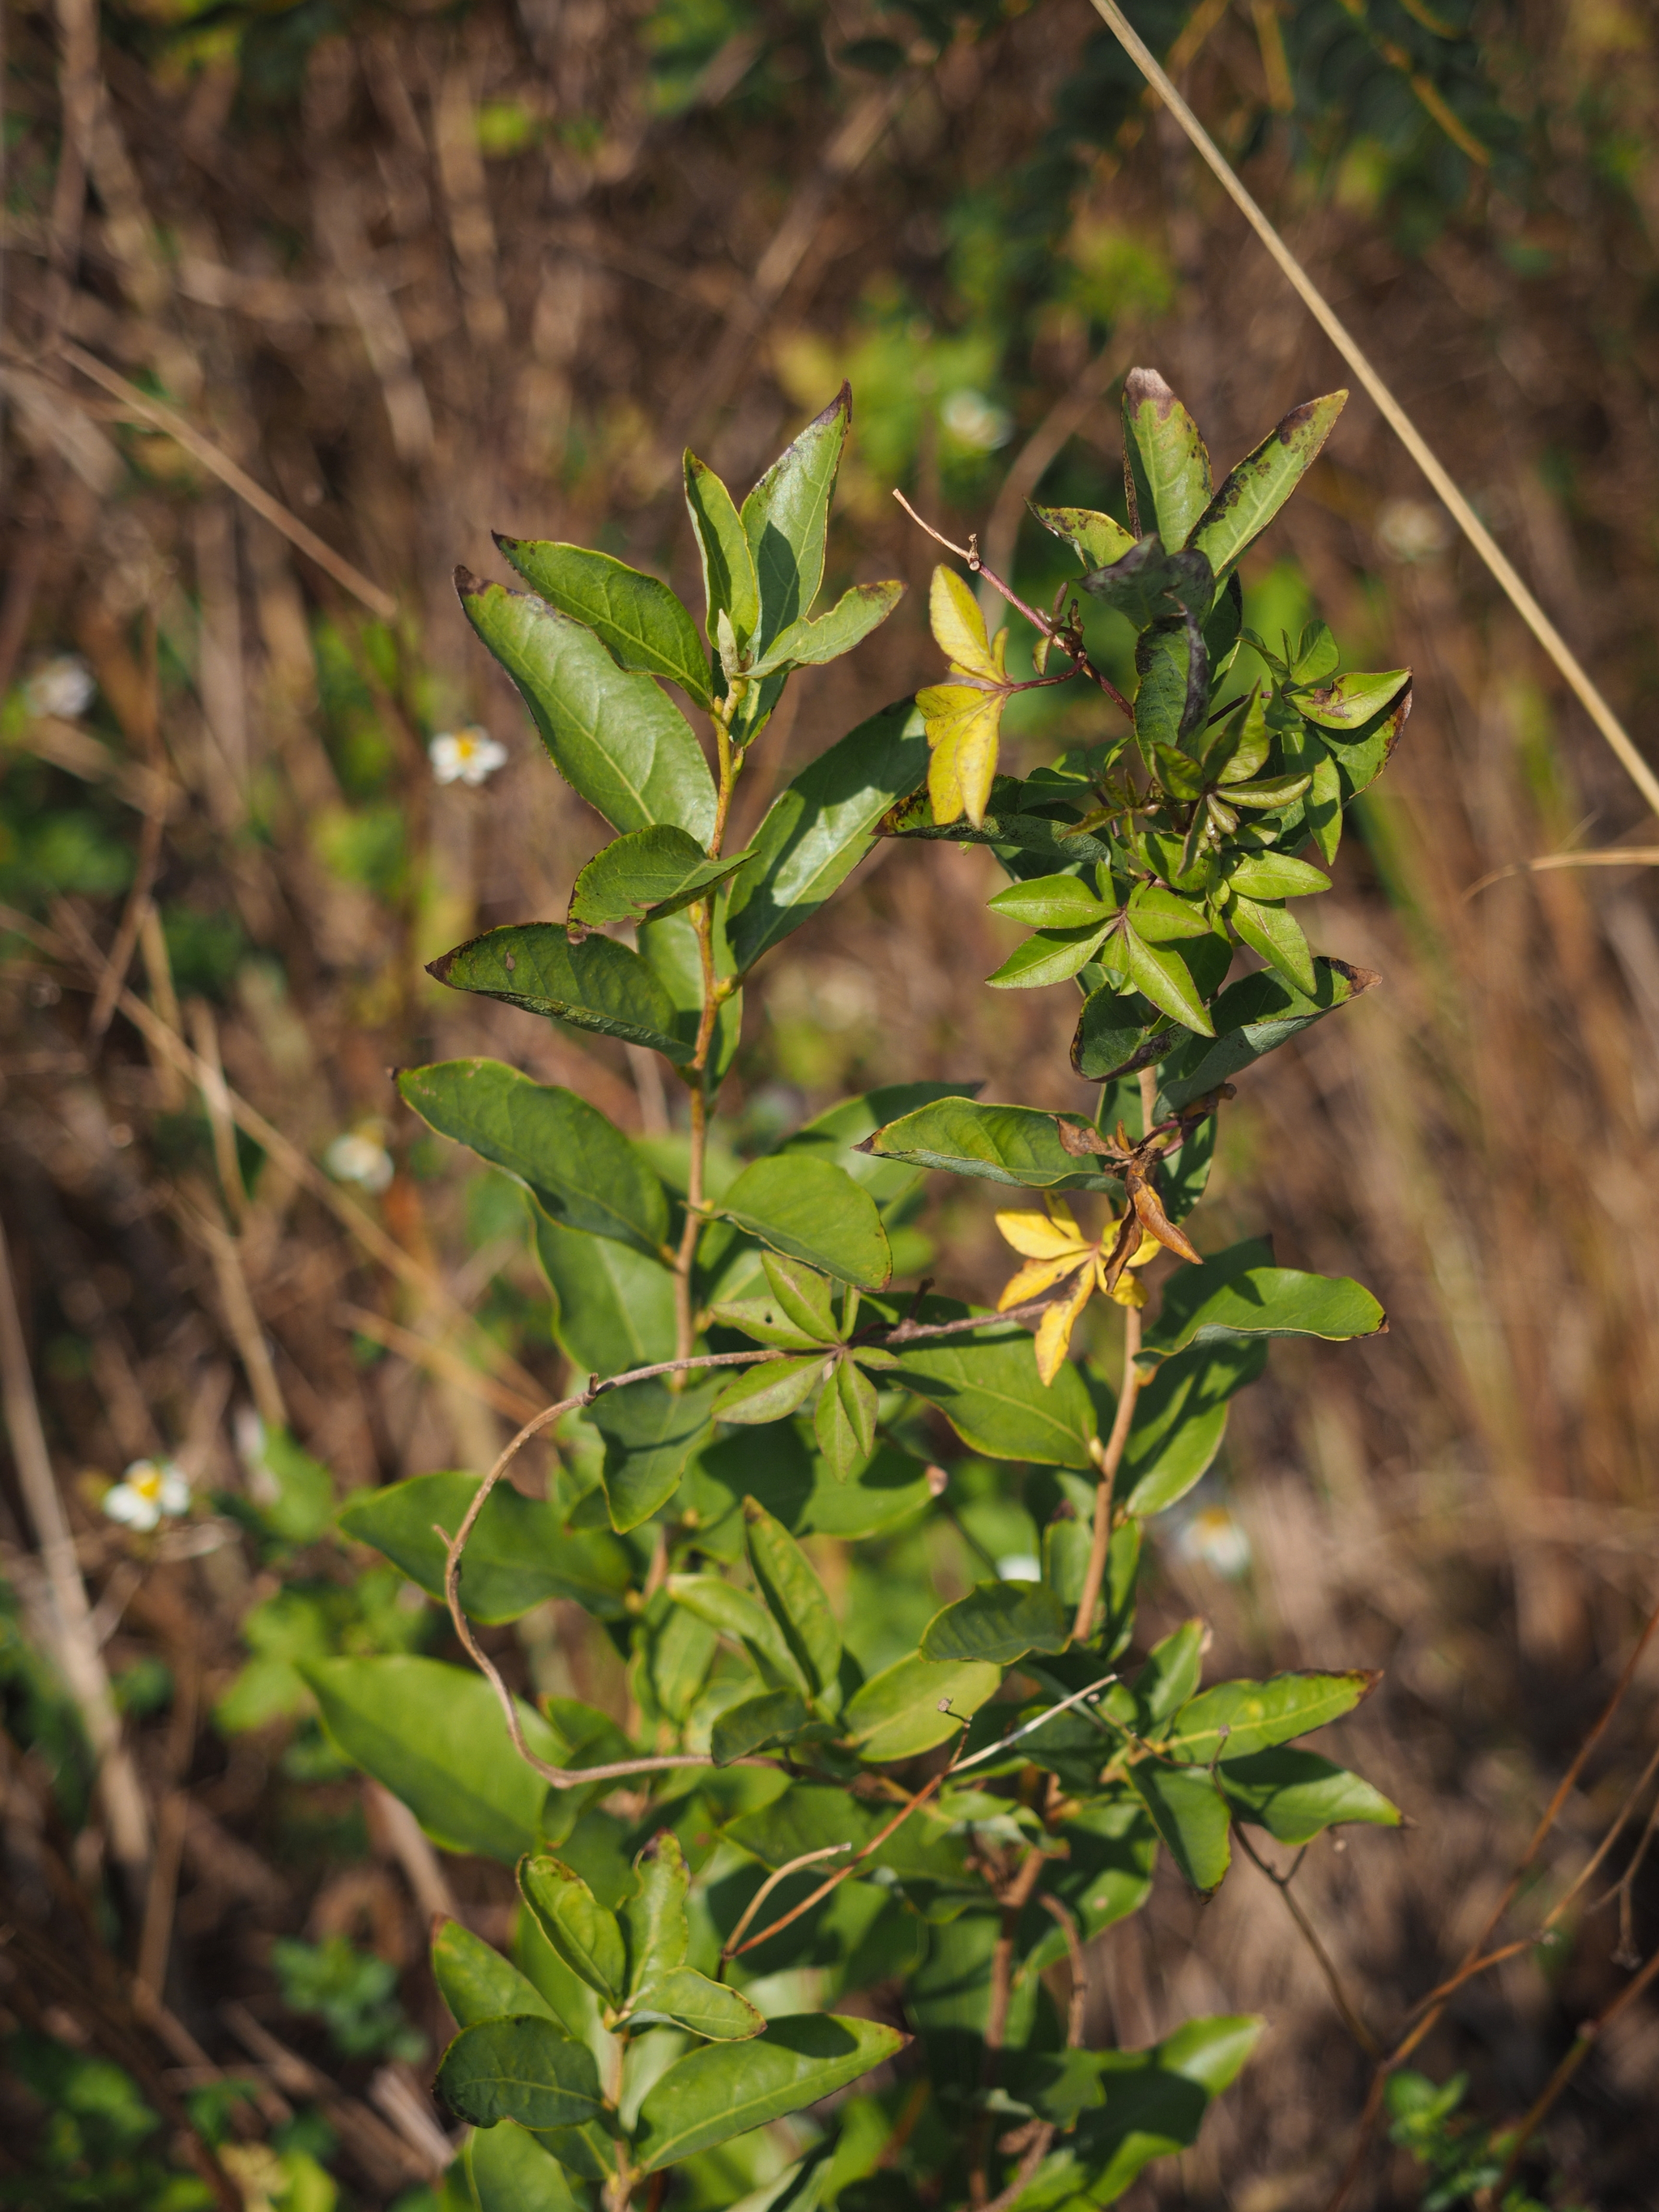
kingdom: Plantae
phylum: Tracheophyta
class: Magnoliopsida
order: Laurales
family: Lauraceae
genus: Lindera
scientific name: Lindera glauca
